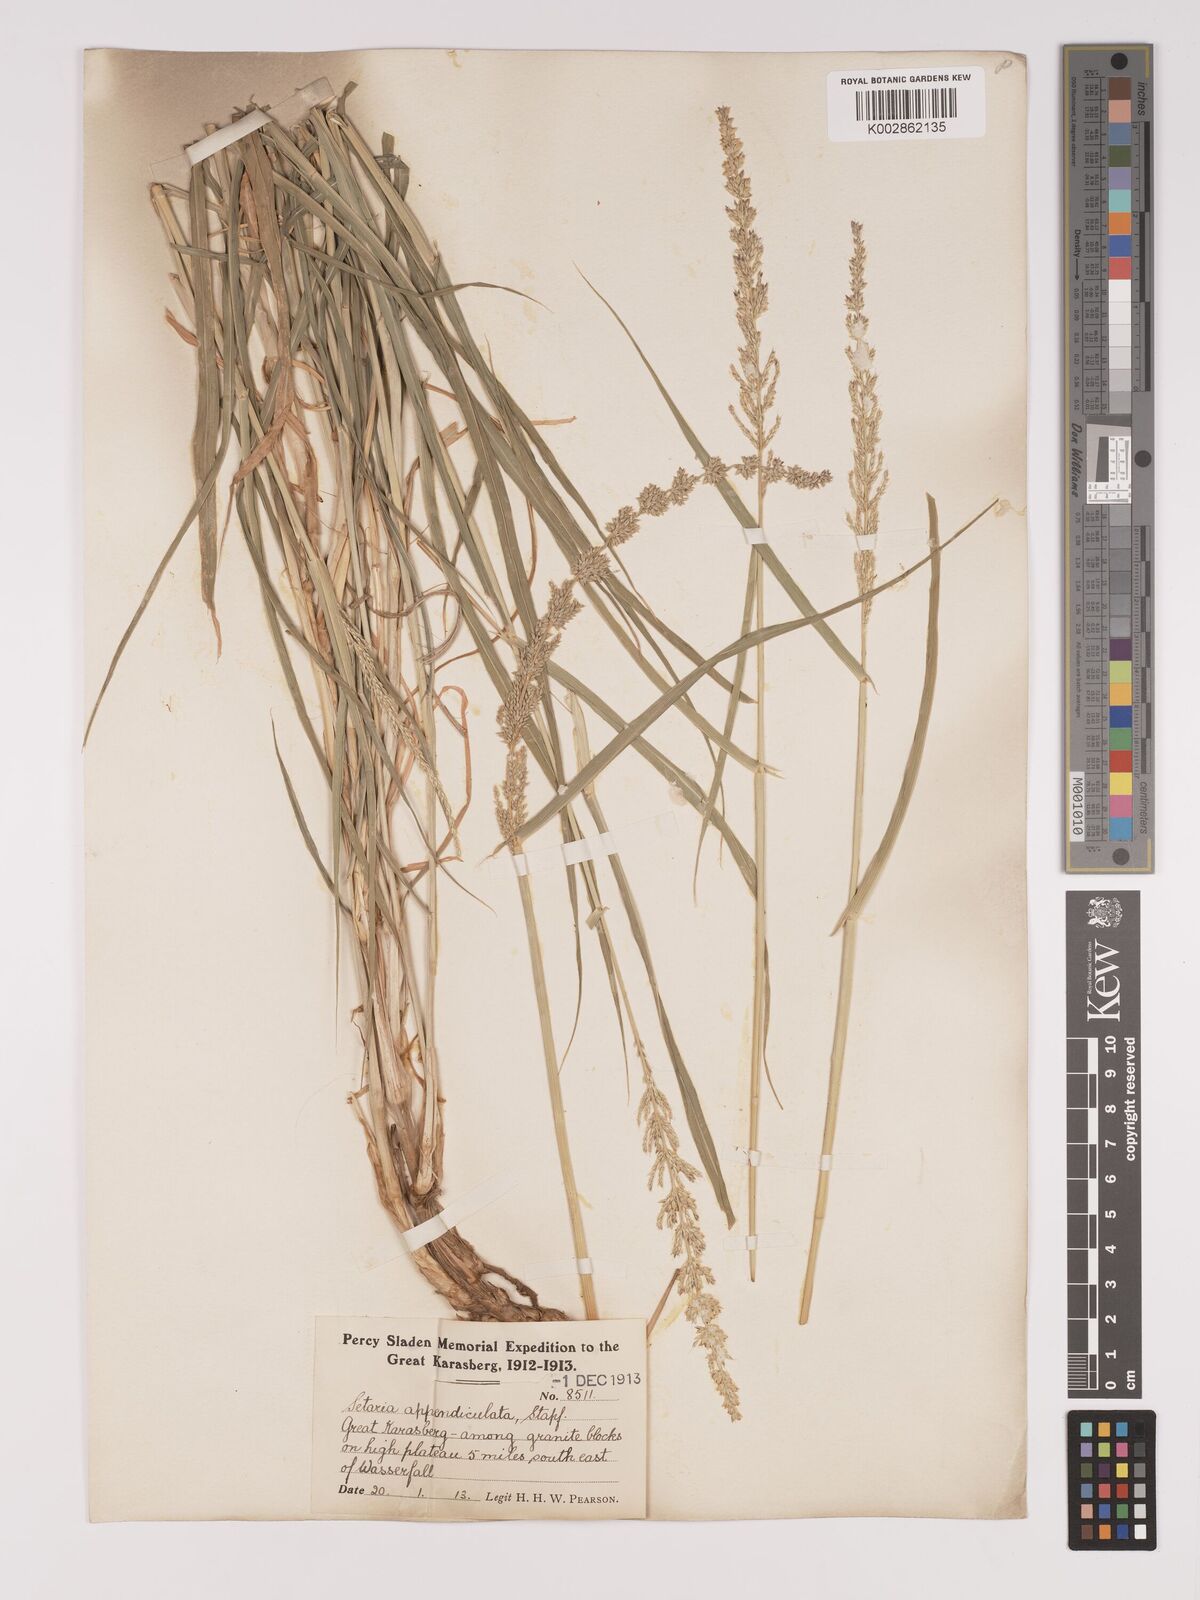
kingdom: Plantae
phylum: Tracheophyta
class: Liliopsida
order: Poales
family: Poaceae
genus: Setaria
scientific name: Setaria appendiculata
